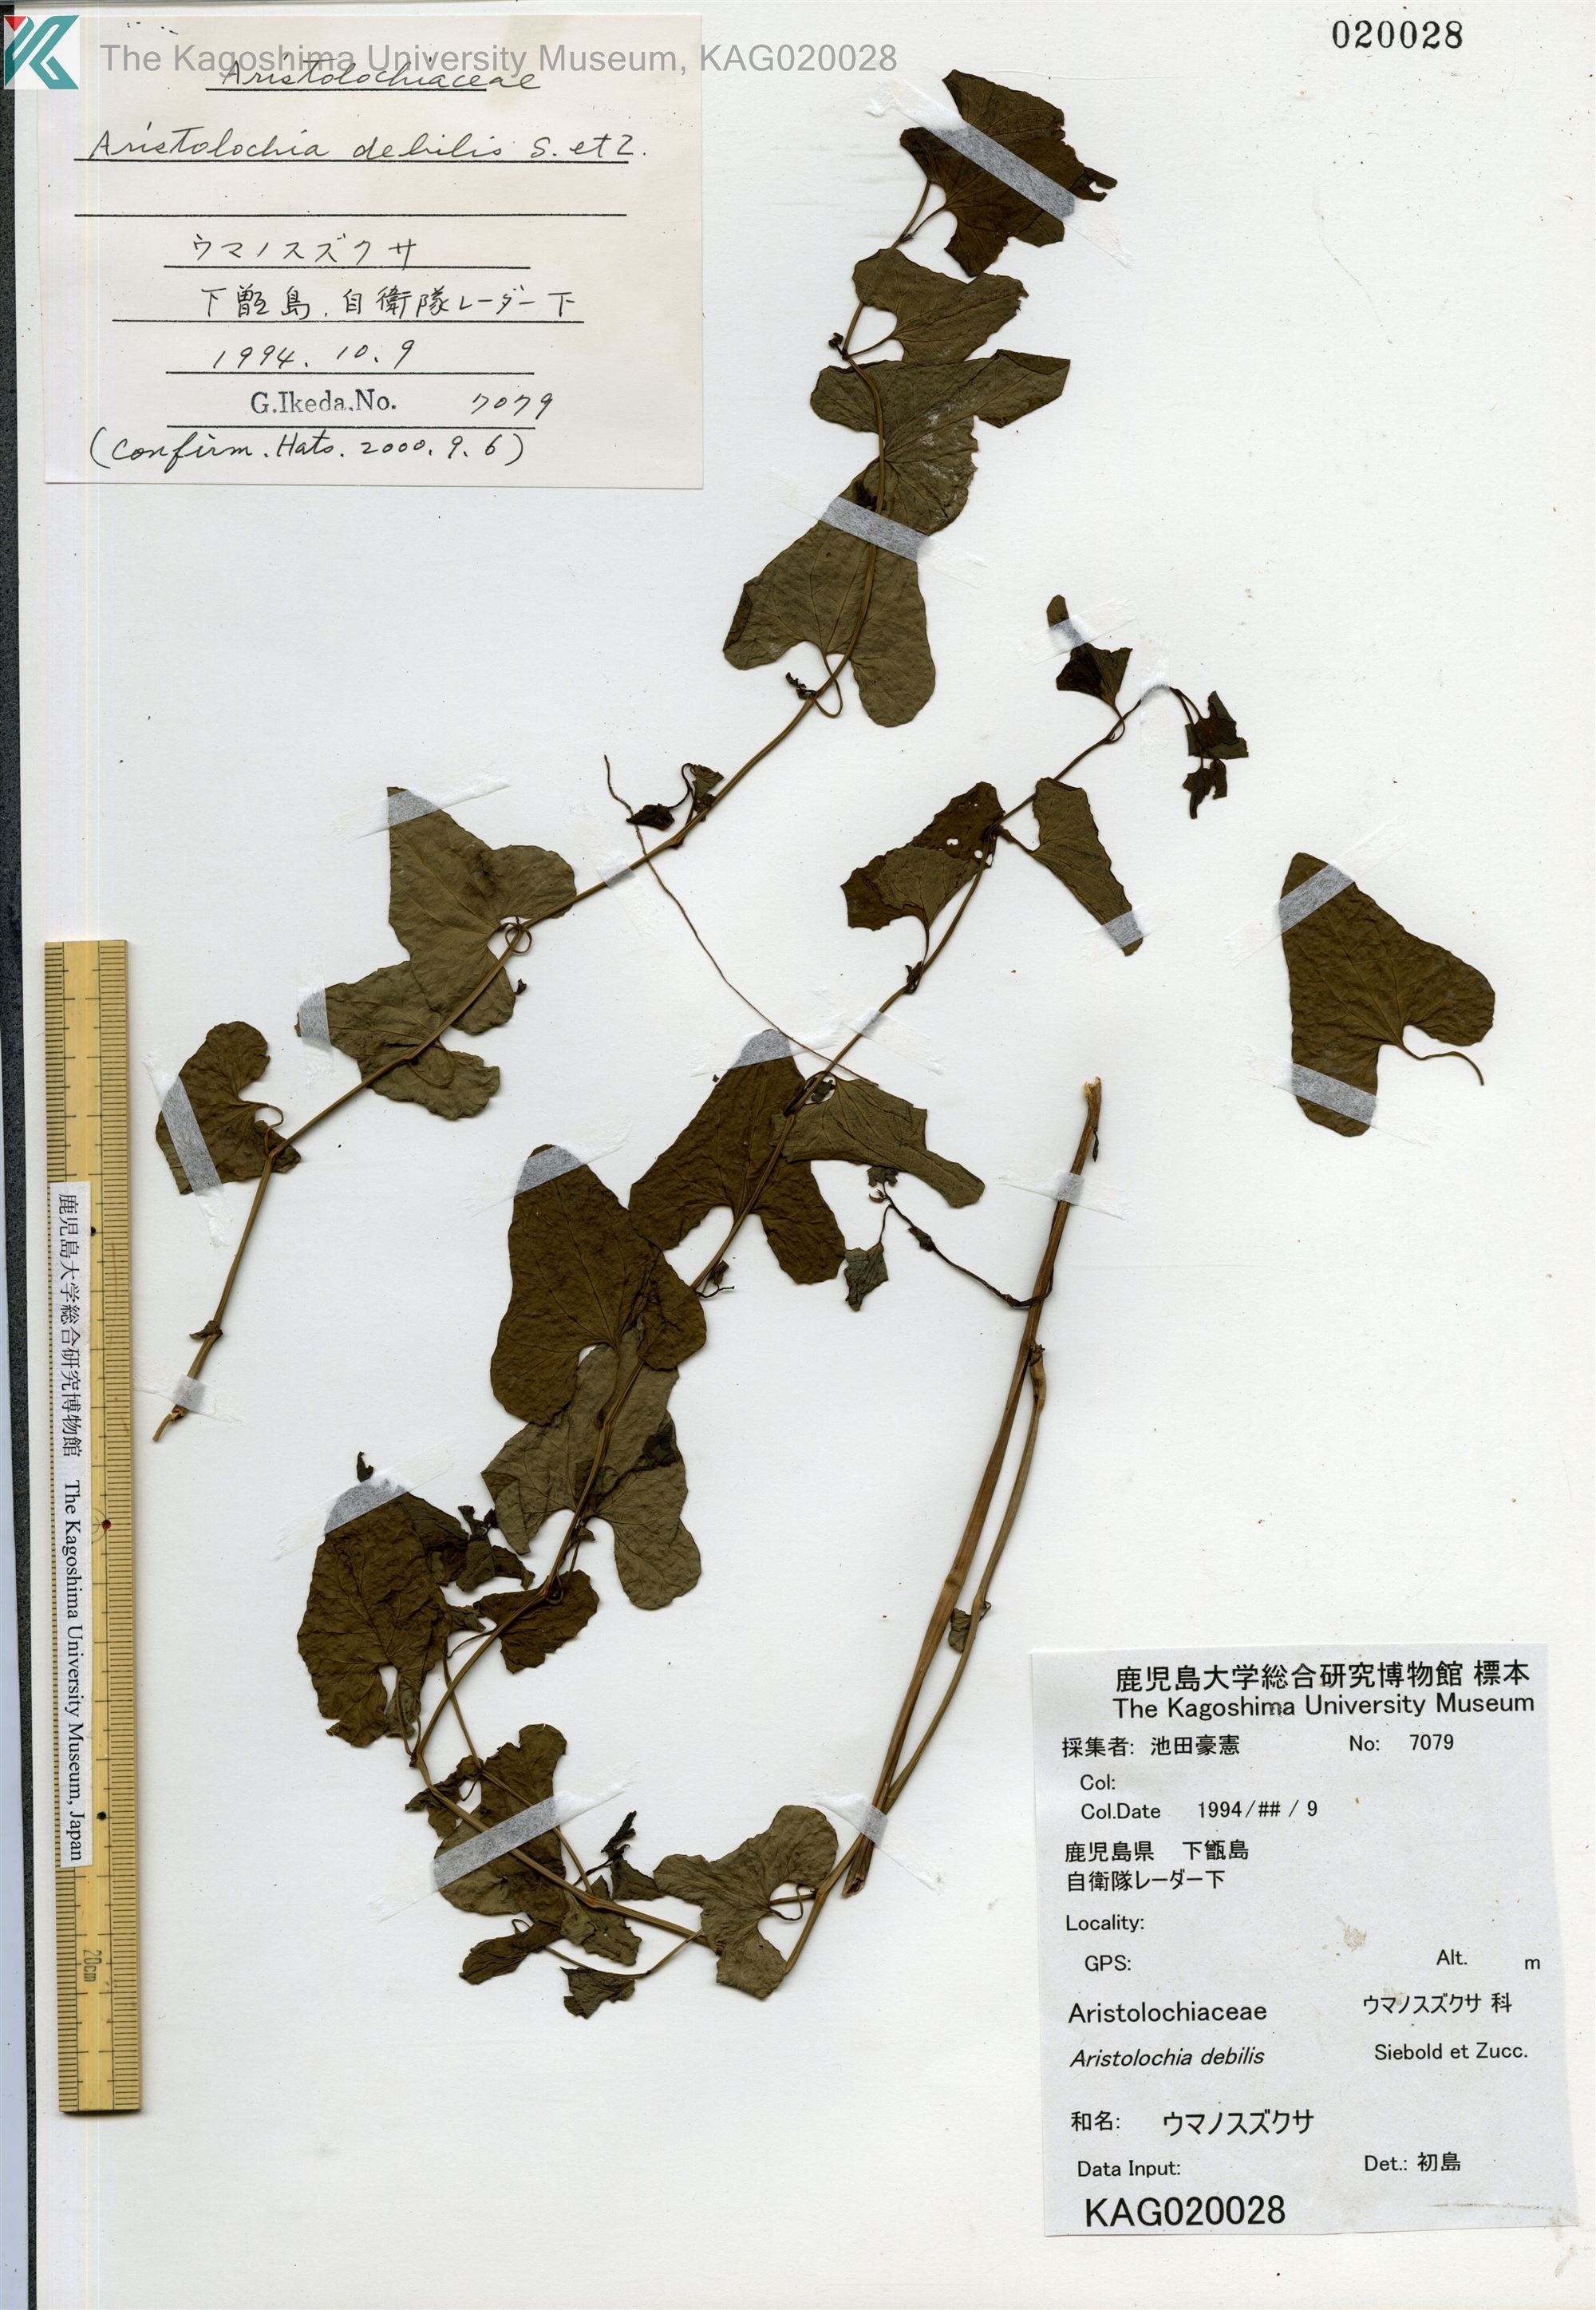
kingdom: Plantae
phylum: Tracheophyta
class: Magnoliopsida
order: Piperales
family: Aristolochiaceae
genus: Aristolochia
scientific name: Aristolochia debilis
